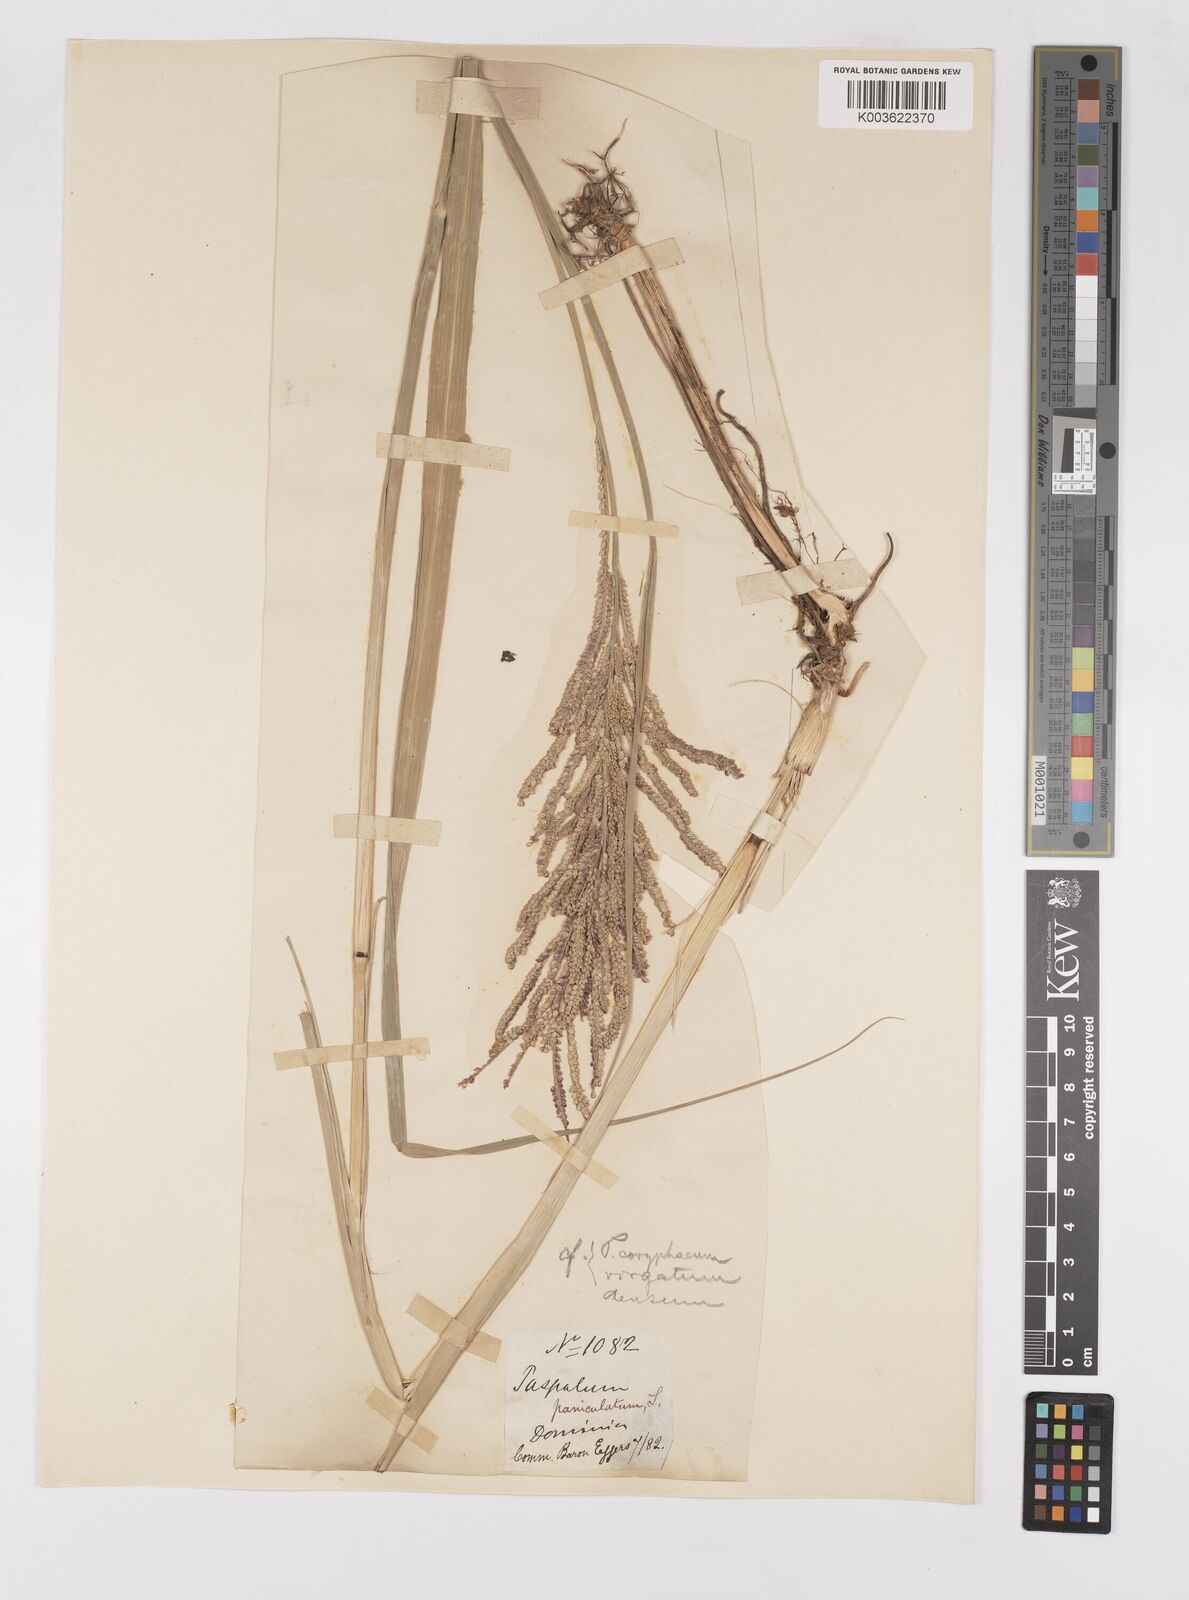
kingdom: Plantae
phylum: Tracheophyta
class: Liliopsida
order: Poales
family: Poaceae
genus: Paspalum
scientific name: Paspalum millegranum
